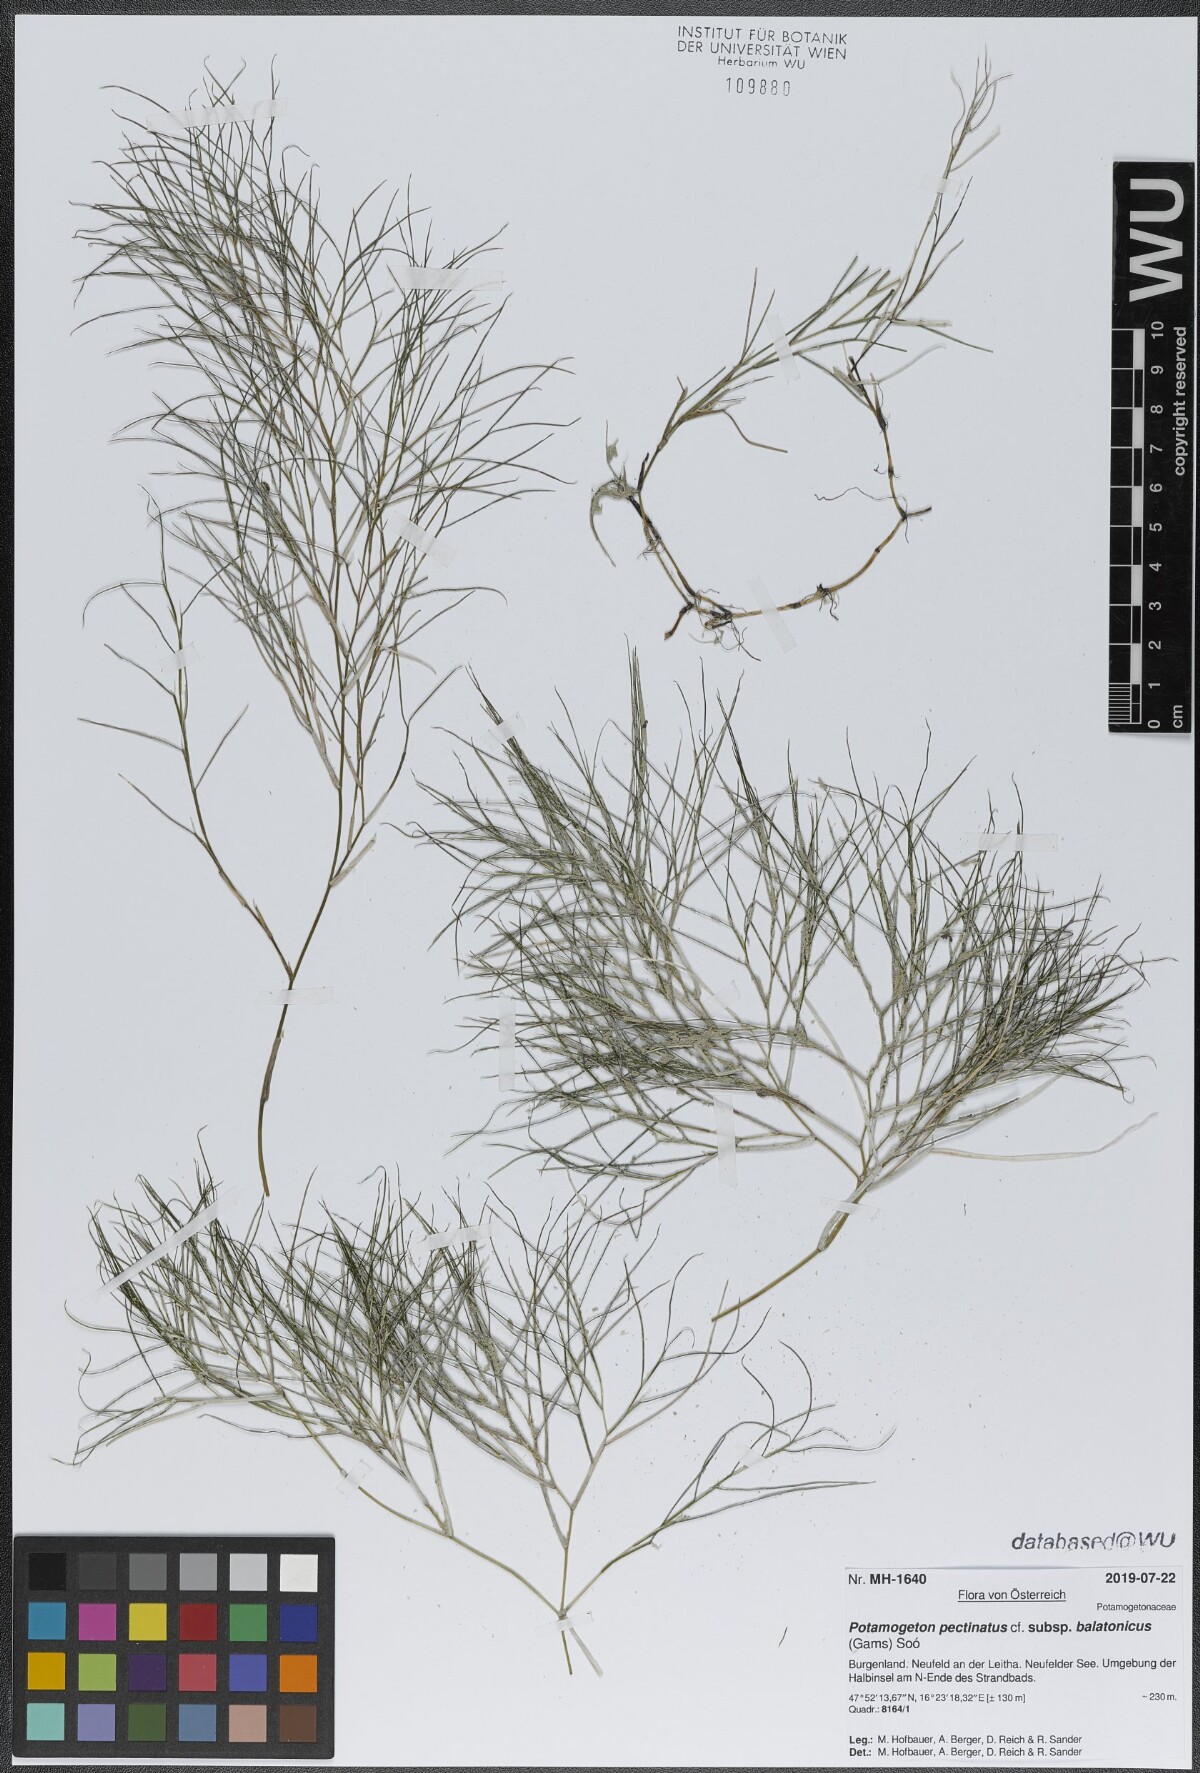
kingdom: Plantae
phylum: Tracheophyta
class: Liliopsida
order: Alismatales
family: Potamogetonaceae
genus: Stuckenia
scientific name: Stuckenia pectinata
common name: Sago pondweed
